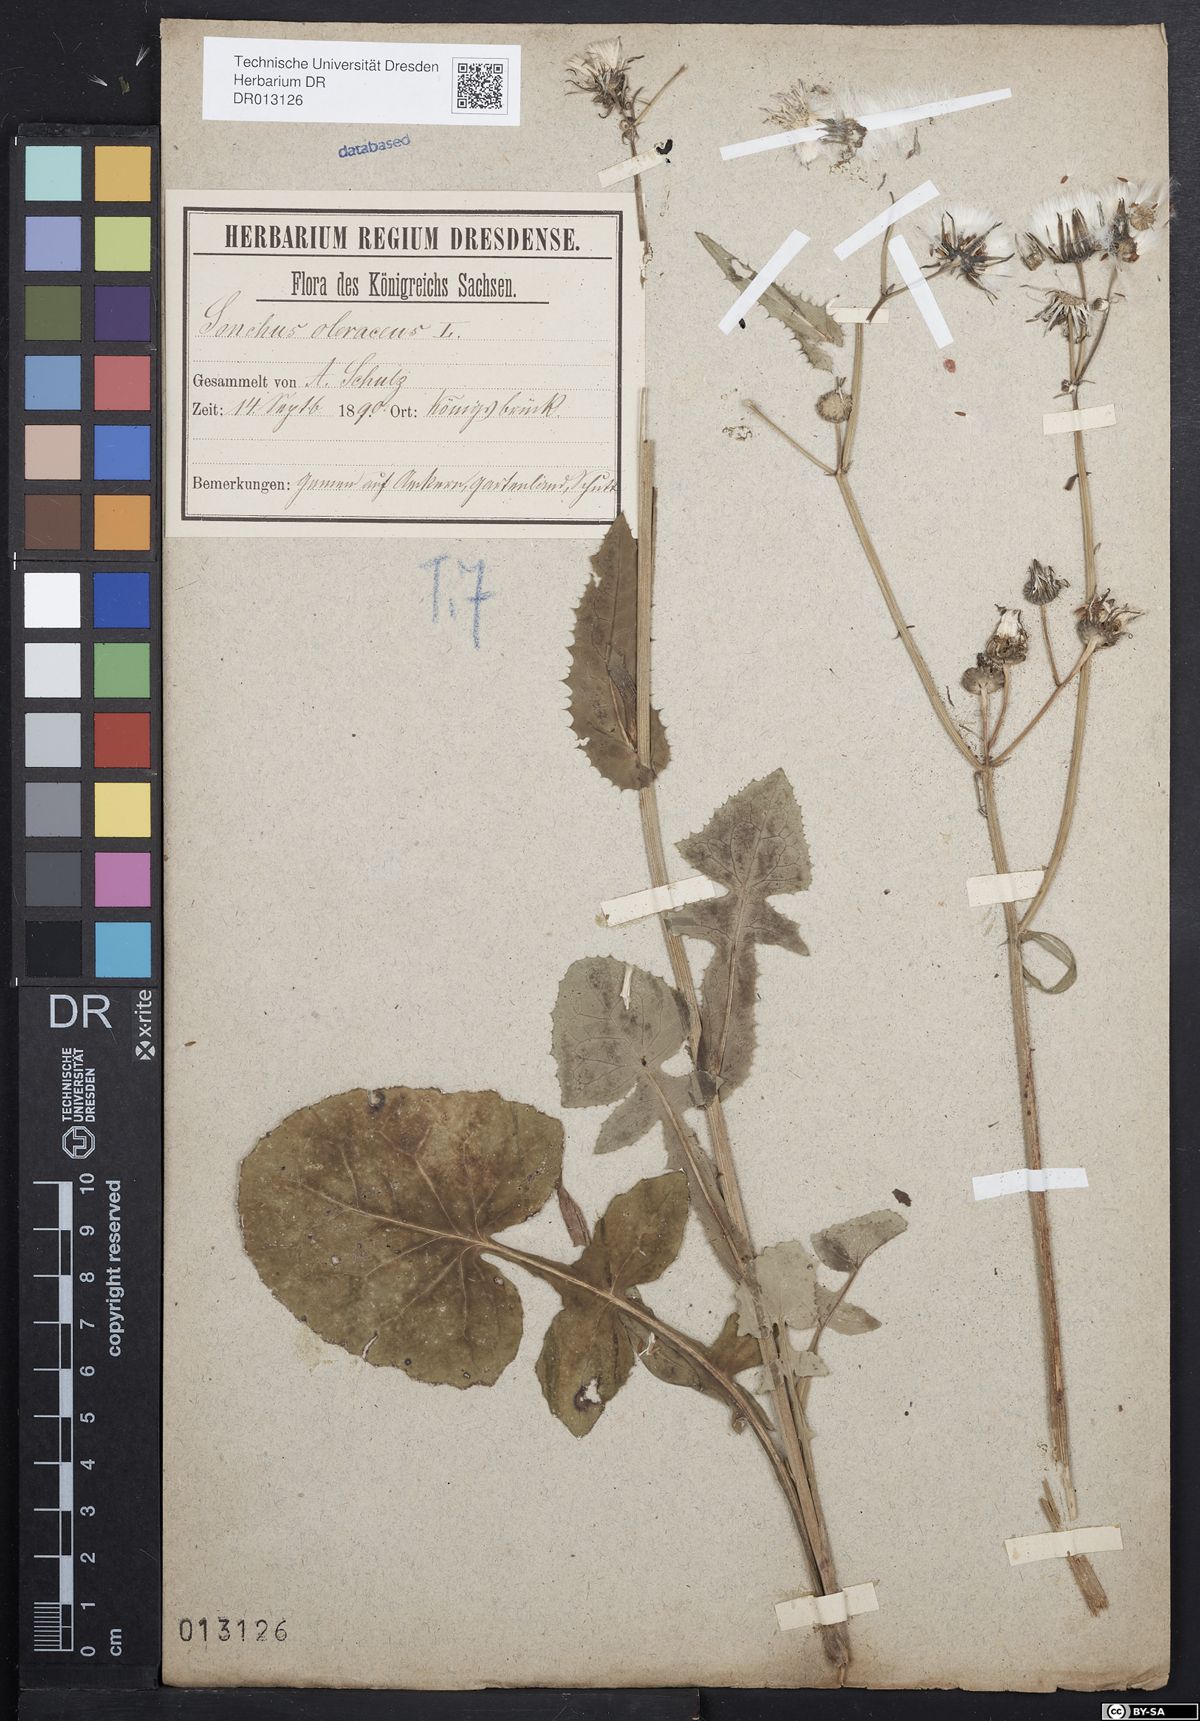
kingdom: Plantae
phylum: Tracheophyta
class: Magnoliopsida
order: Asterales
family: Asteraceae
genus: Sonchus
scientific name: Sonchus oleraceus
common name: Common sowthistle
